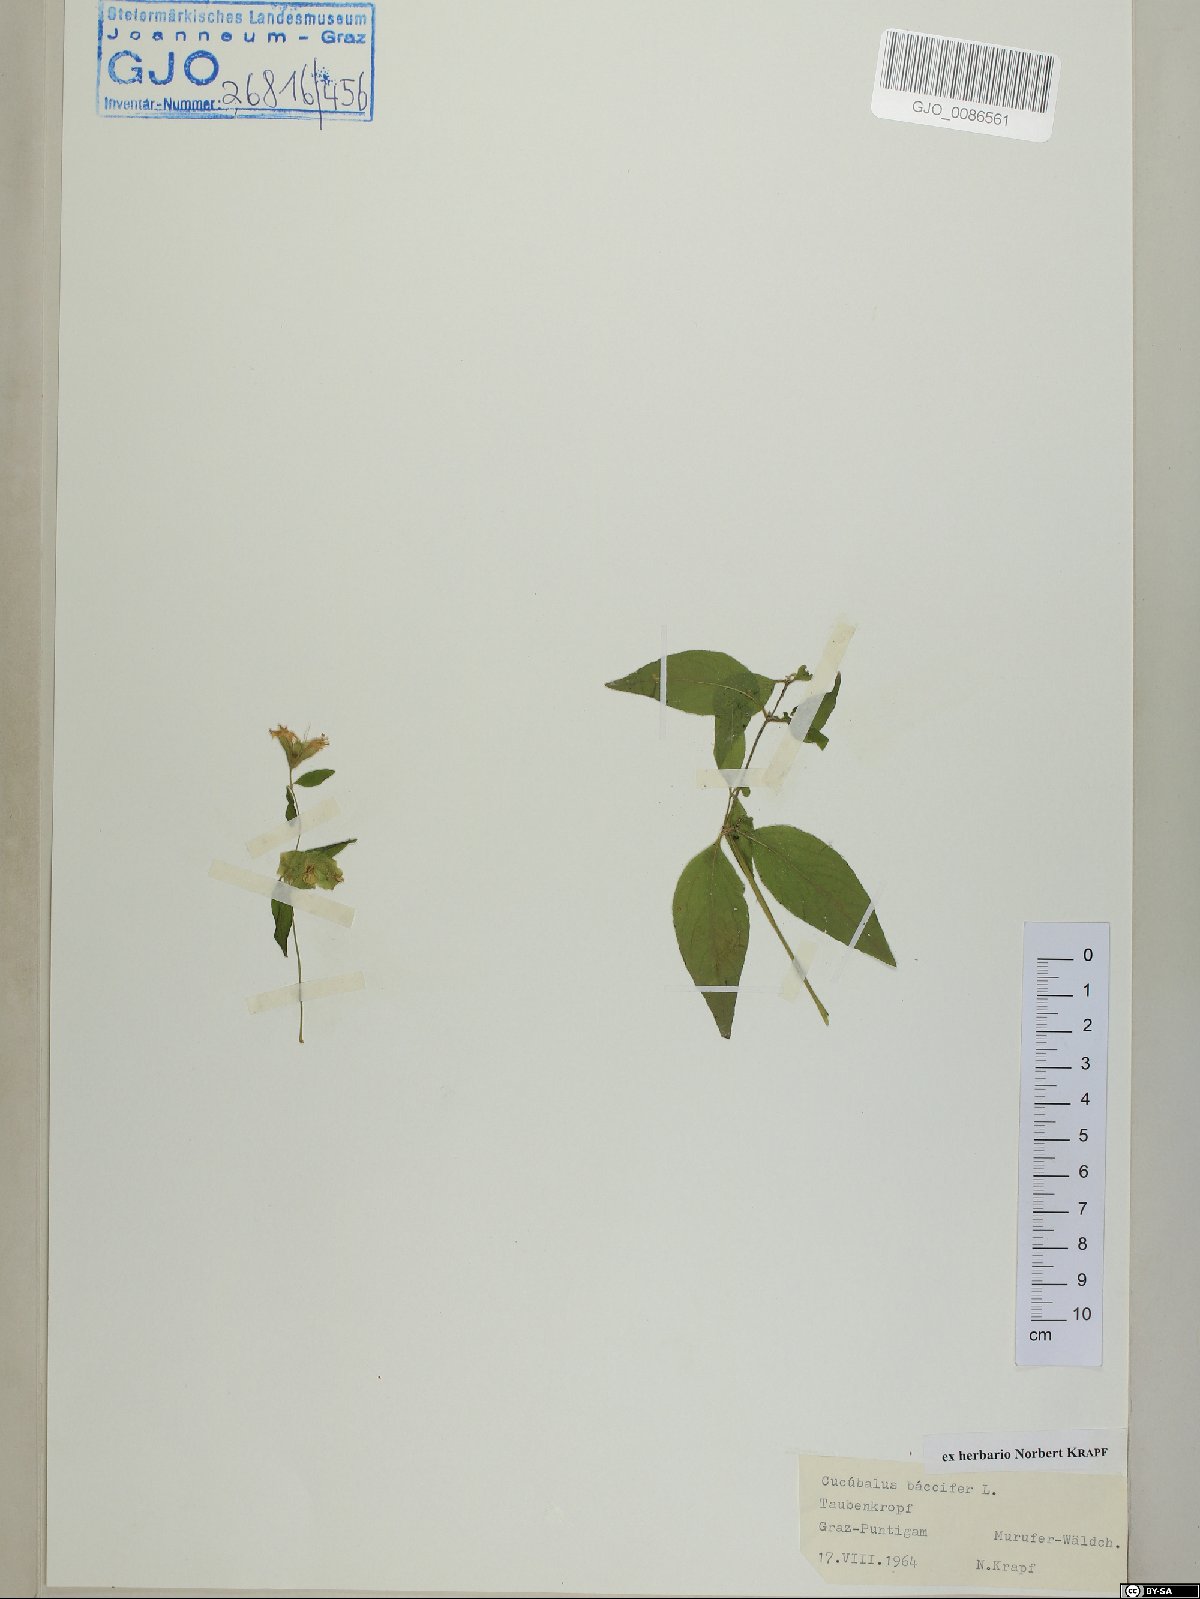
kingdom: Plantae
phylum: Tracheophyta
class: Magnoliopsida
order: Caryophyllales
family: Caryophyllaceae
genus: Silene
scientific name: Silene baccifera
